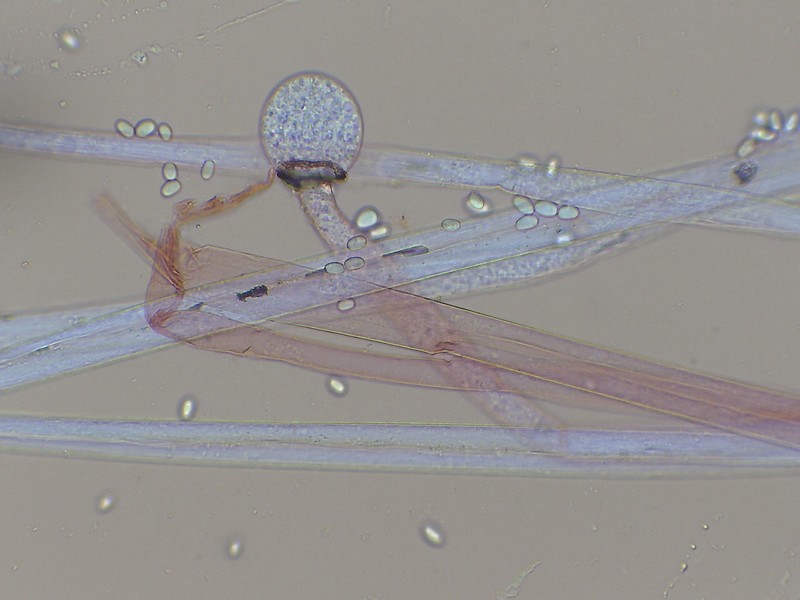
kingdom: Fungi
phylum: Mucoromycota
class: Mucoromycetes
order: Mucorales
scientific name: Mucorales
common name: mugordenen
